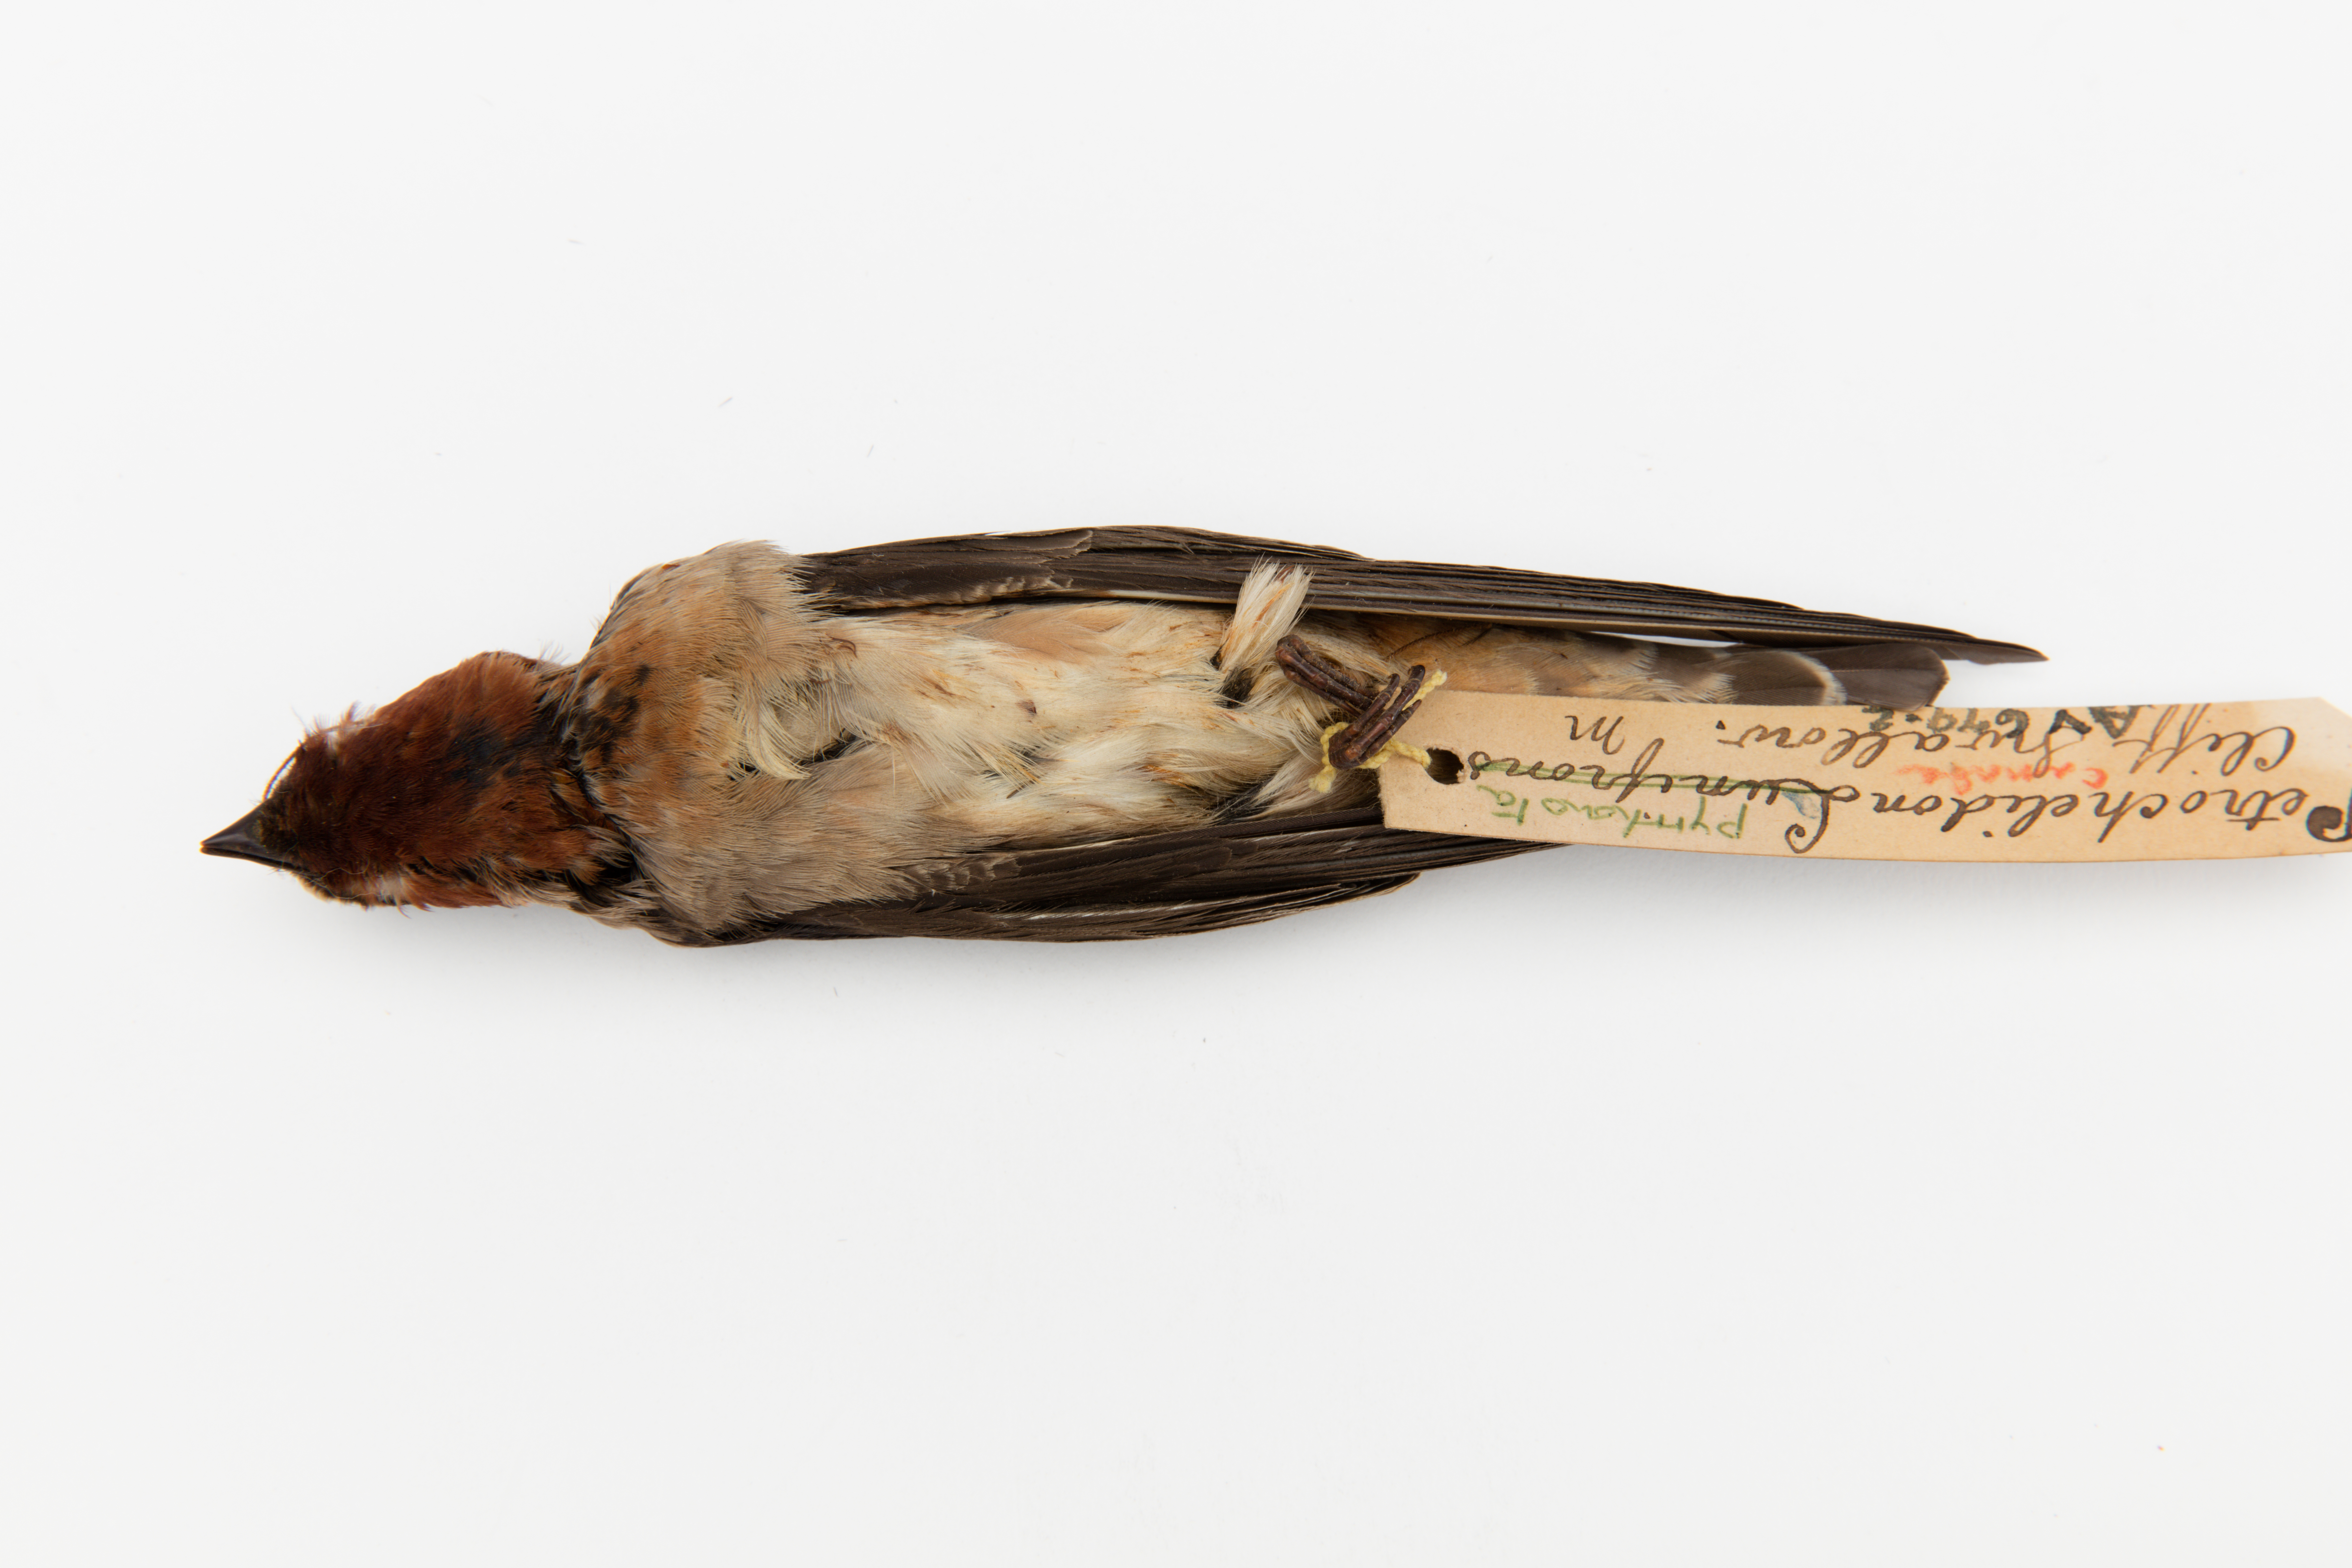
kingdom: Animalia
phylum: Chordata
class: Aves
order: Passeriformes
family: Hirundinidae
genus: Petrochelidon
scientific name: Petrochelidon pyrrhonota
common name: American cliff swallow
